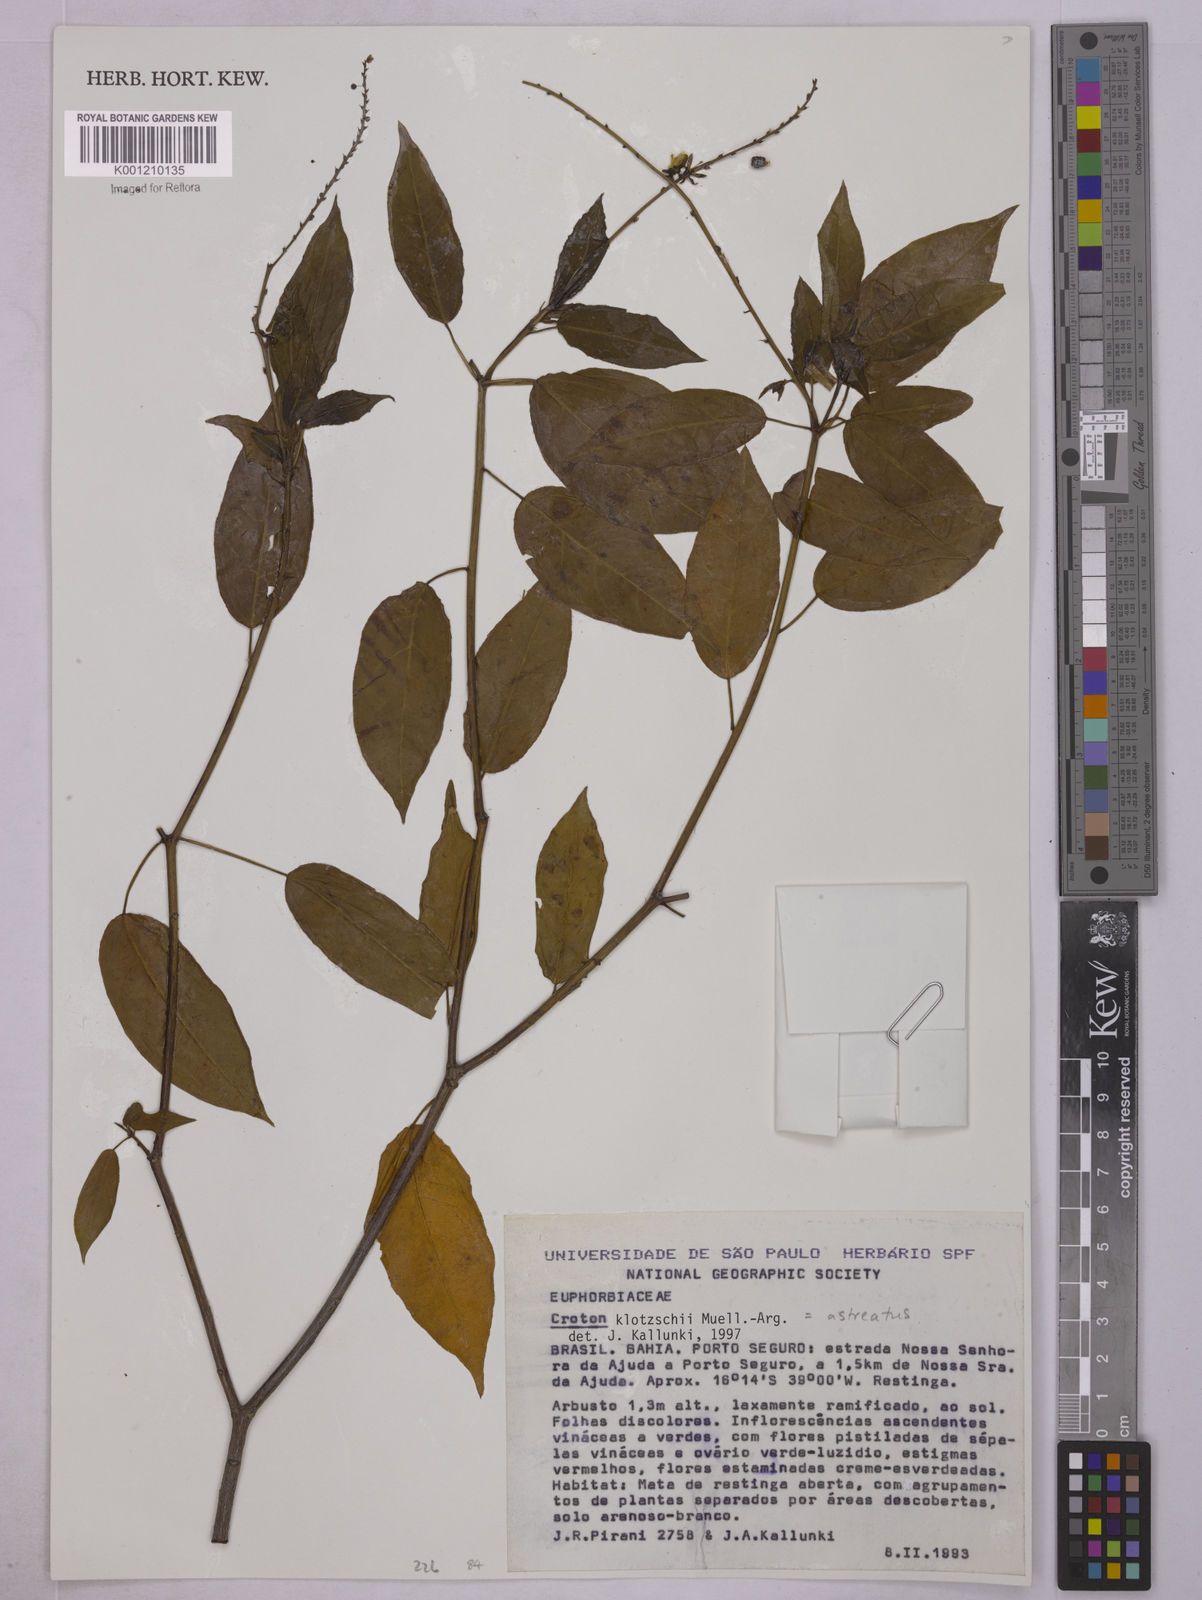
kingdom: Plantae
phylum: Tracheophyta
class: Magnoliopsida
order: Malpighiales
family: Euphorbiaceae
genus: Astraea
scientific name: Astraea macroura
